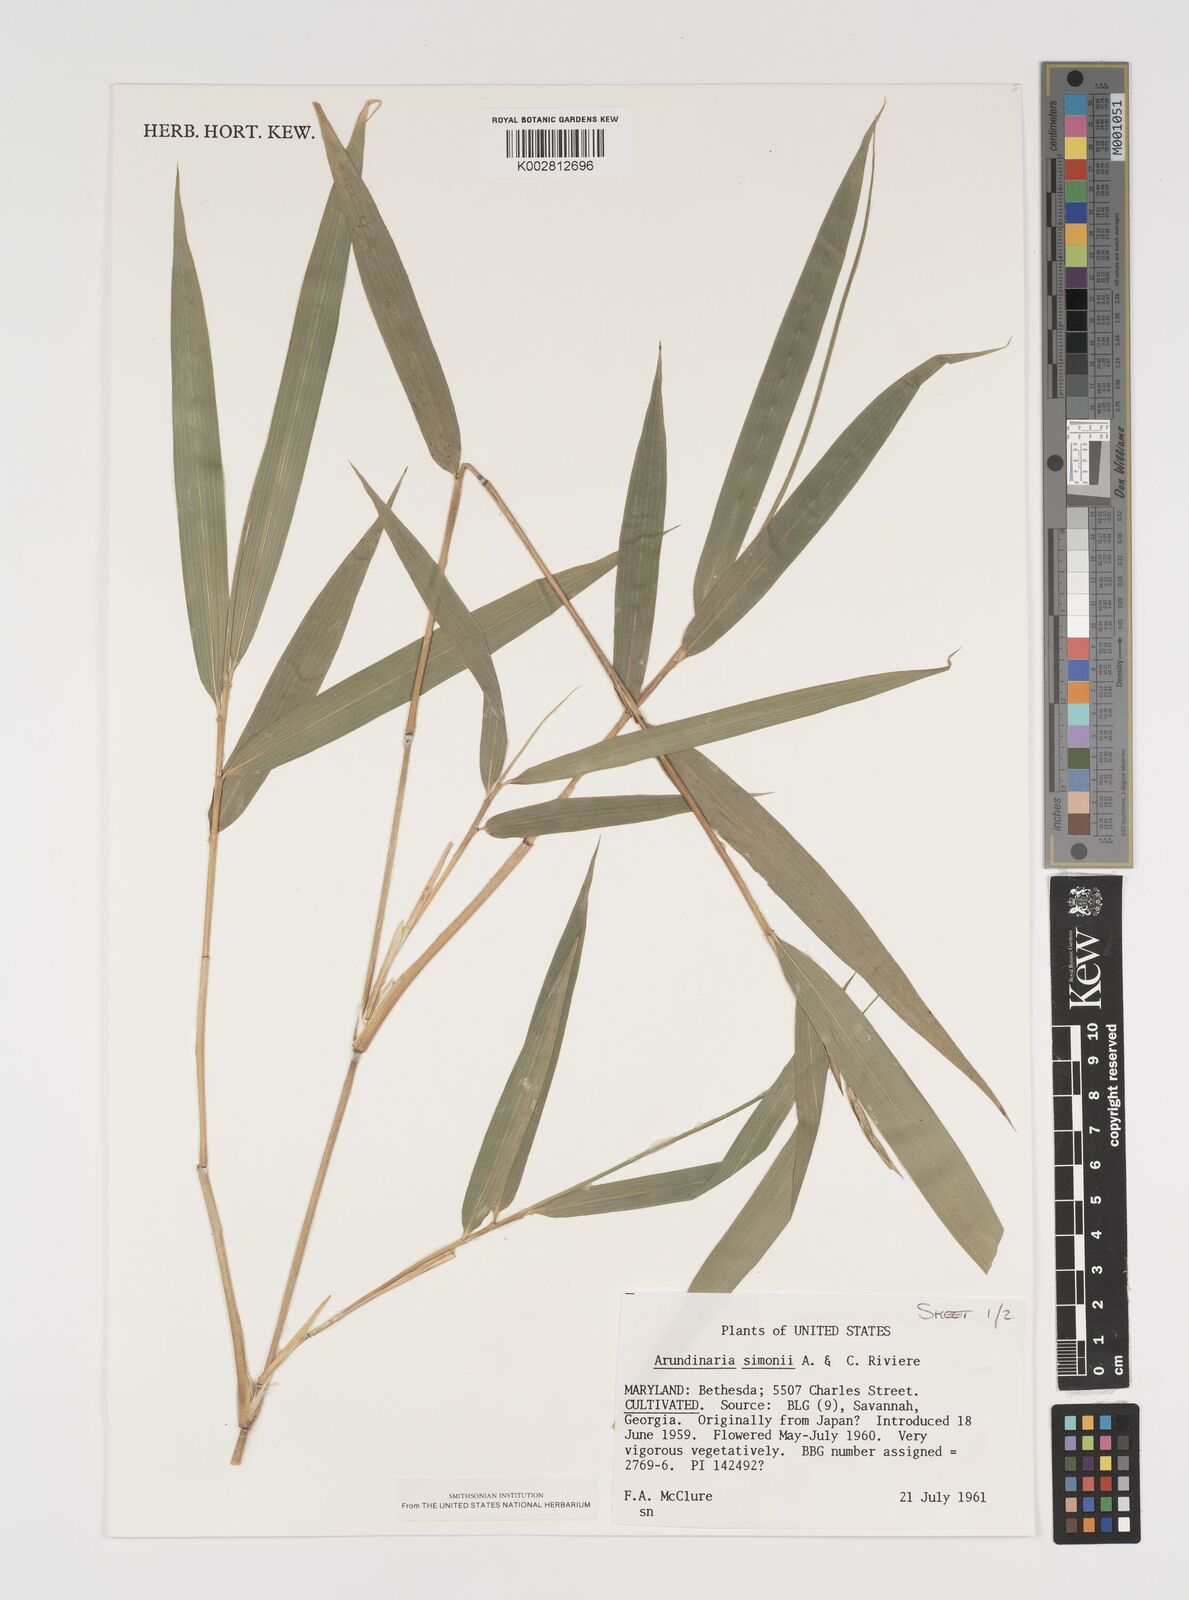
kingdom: Plantae
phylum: Tracheophyta
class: Liliopsida
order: Poales
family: Poaceae
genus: Arundinaria
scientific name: Arundinaria
